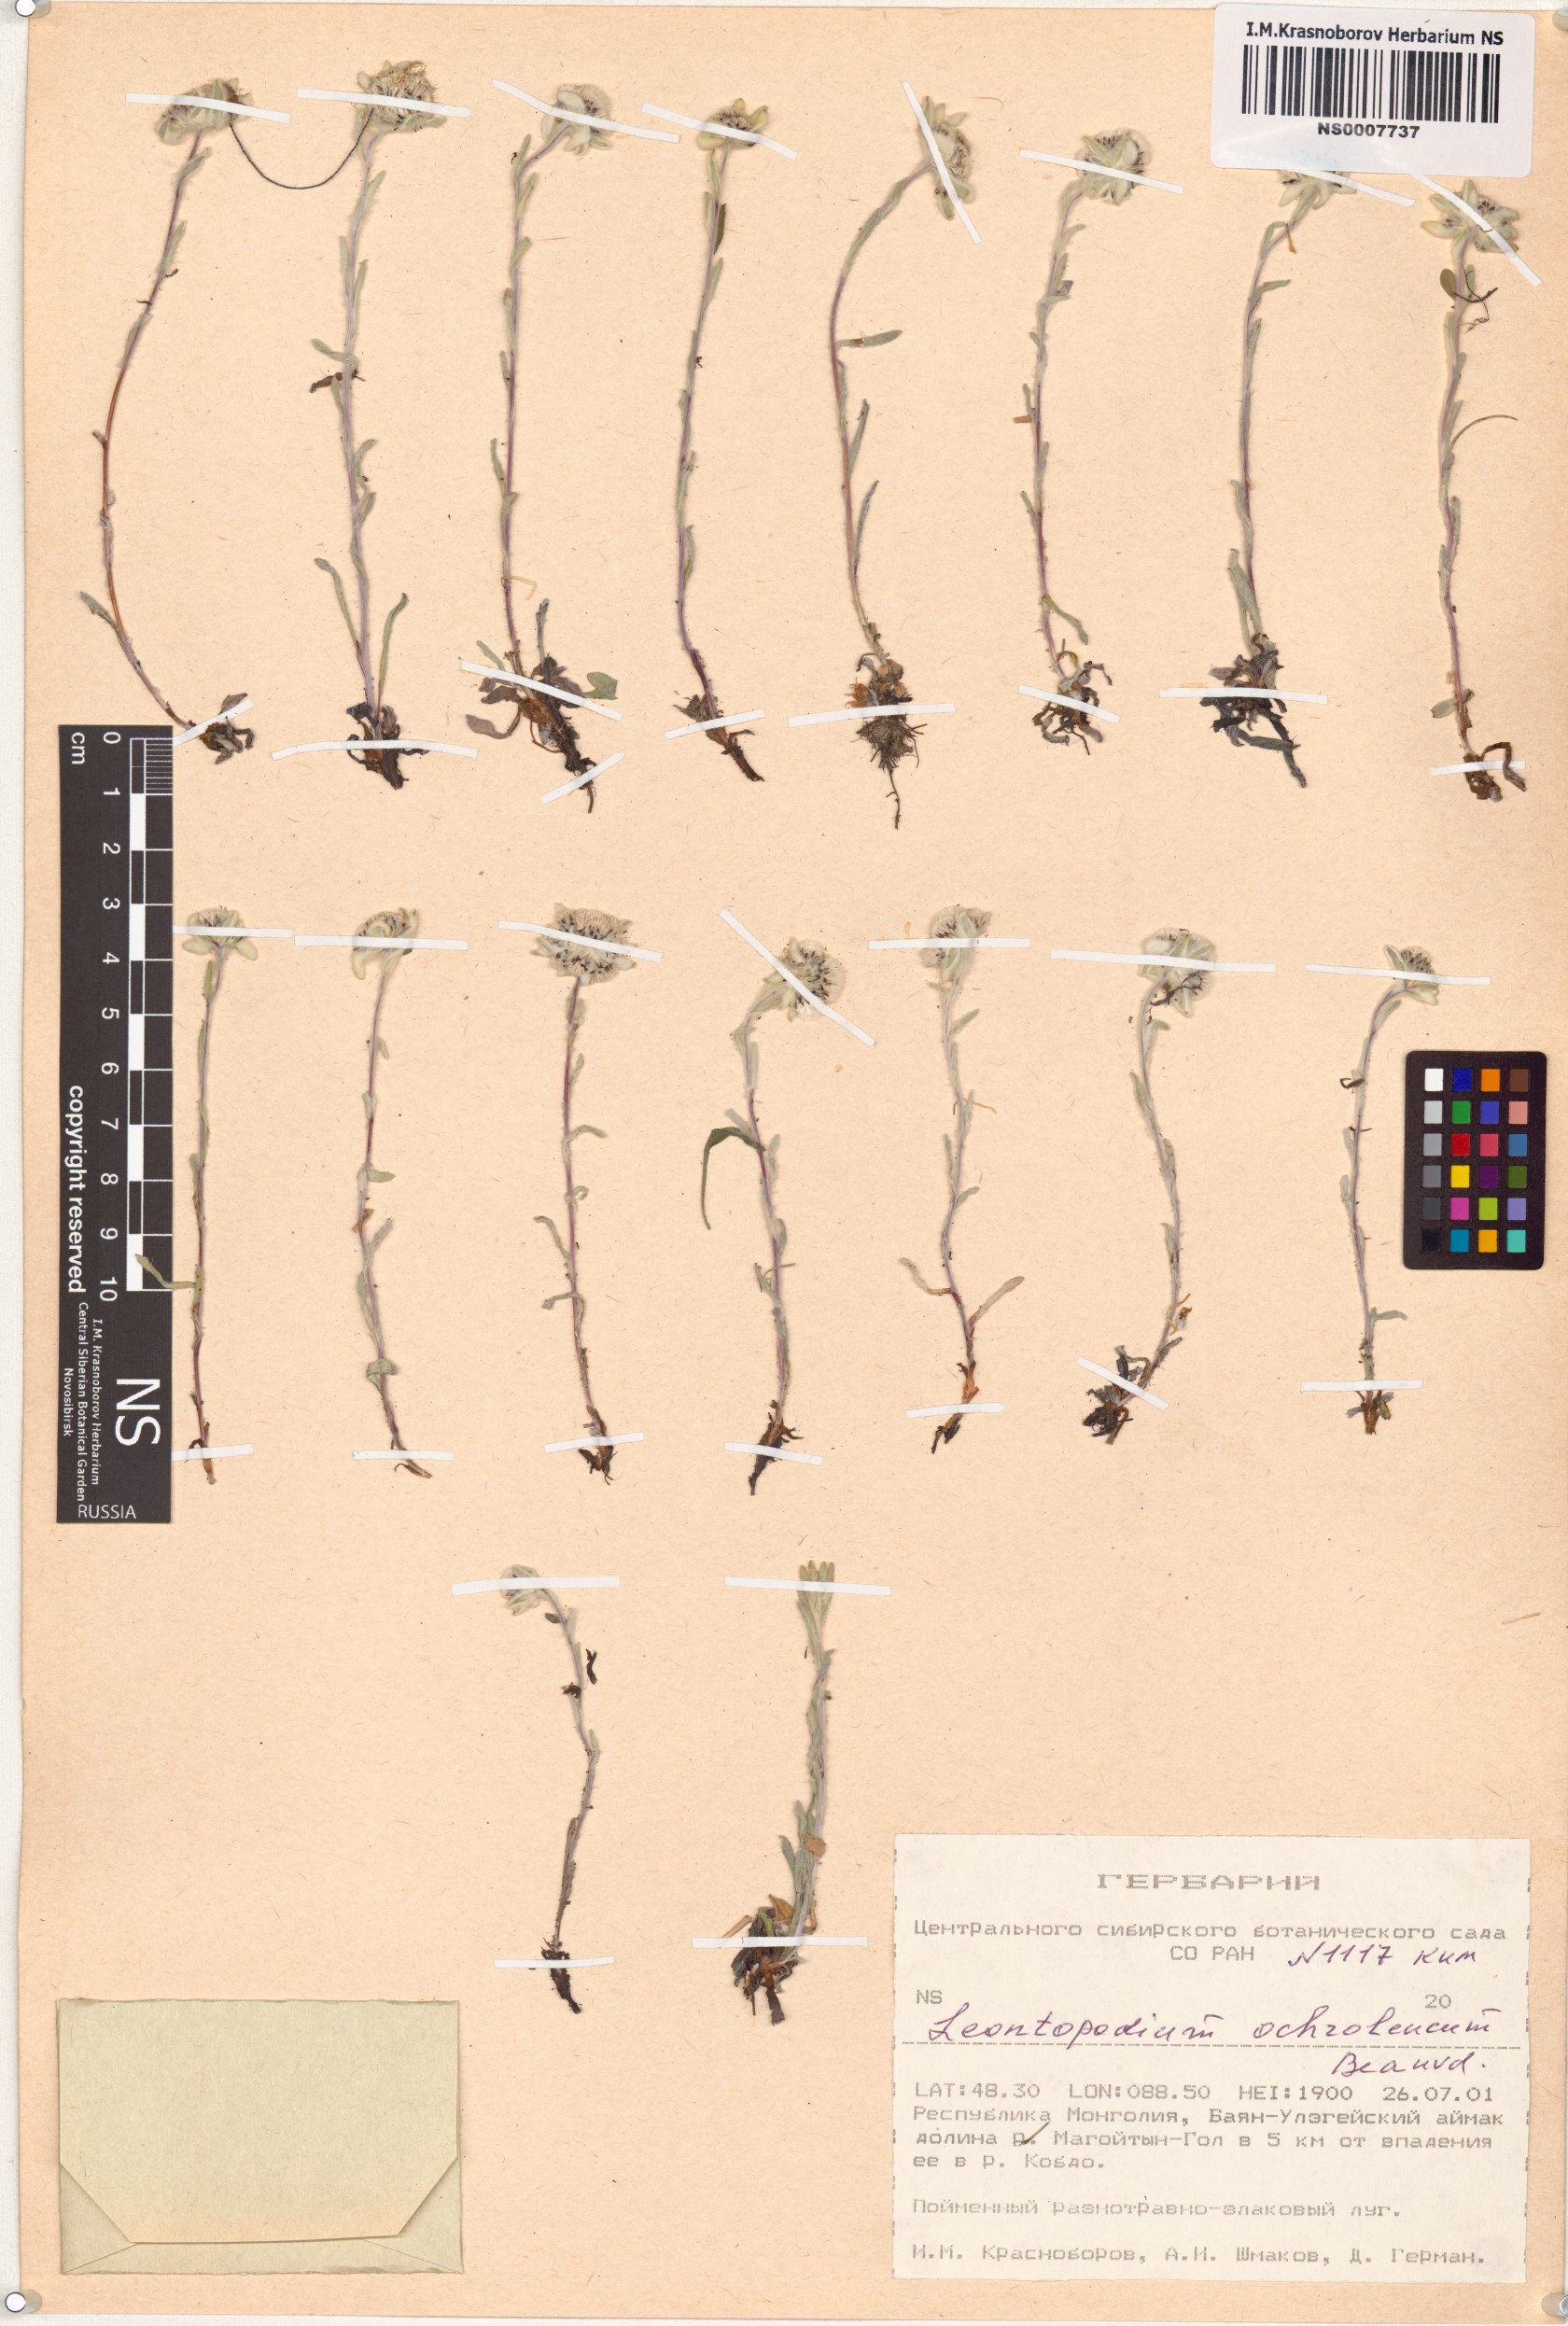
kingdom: Plantae
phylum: Tracheophyta
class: Magnoliopsida
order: Asterales
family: Asteraceae
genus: Leontopodium
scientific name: Leontopodium leontopodinum
